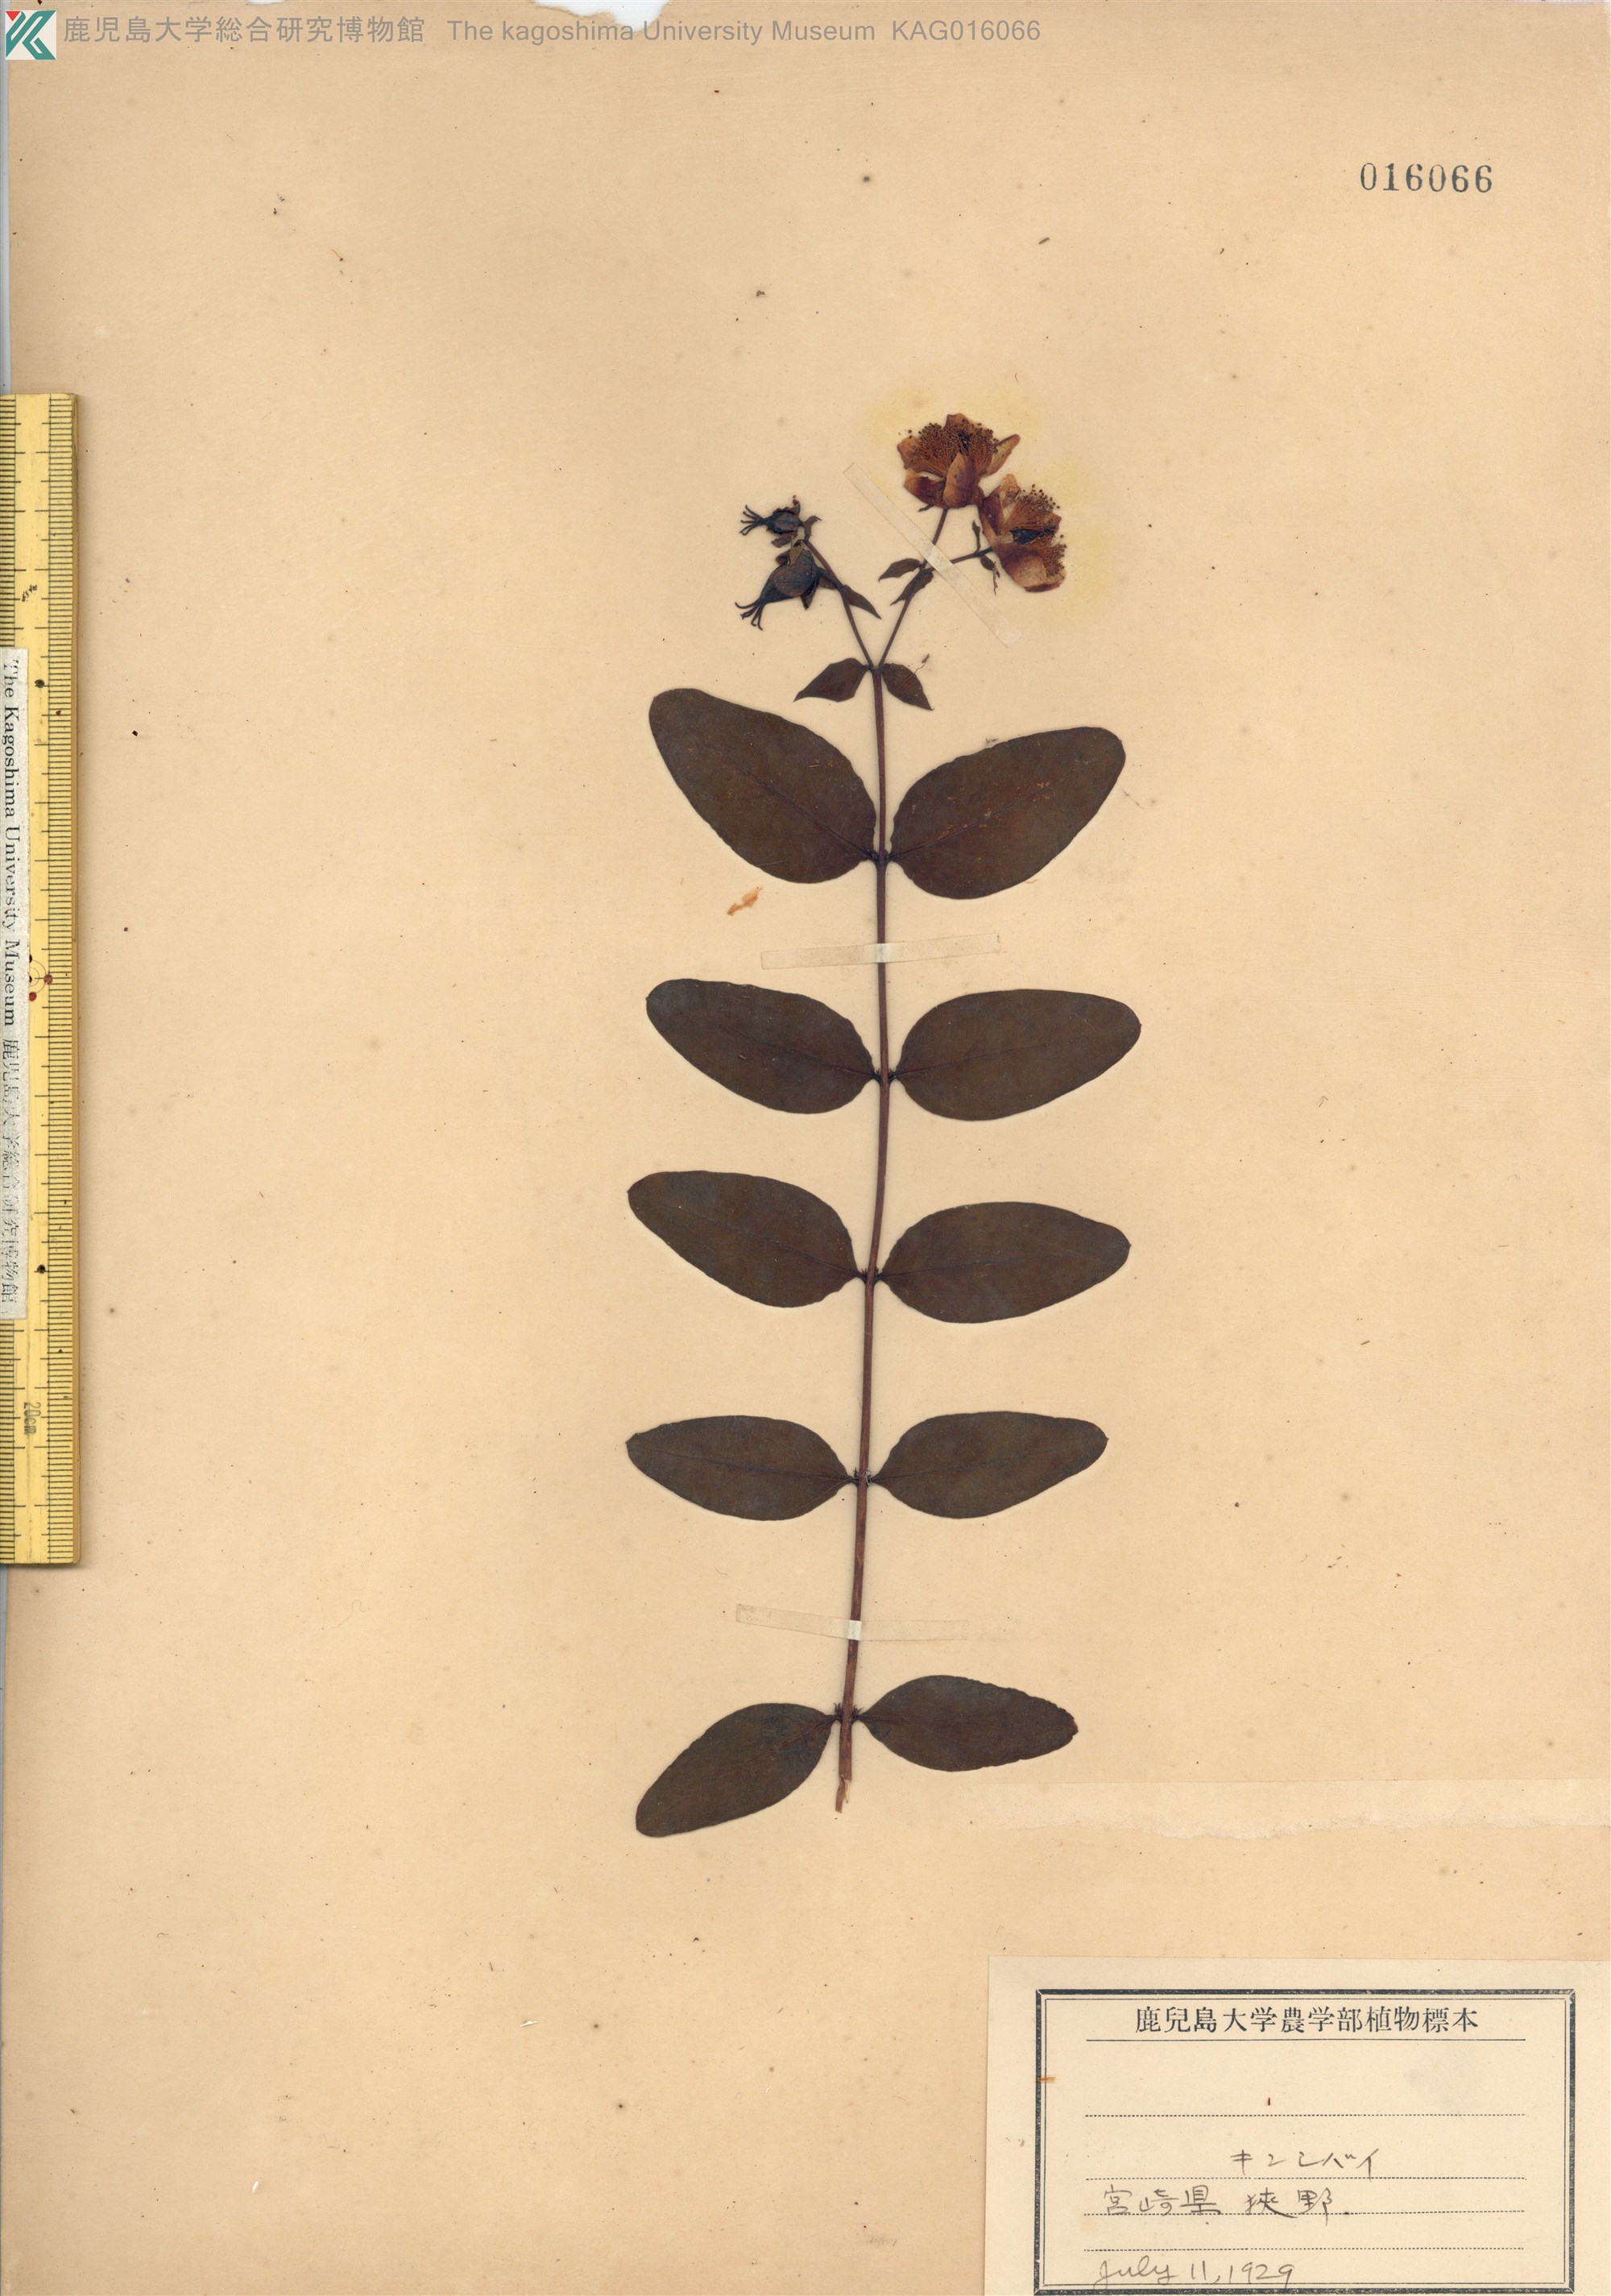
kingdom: Plantae
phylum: Tracheophyta
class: Magnoliopsida
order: Malpighiales
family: Hypericaceae
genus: Hypericum
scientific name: Hypericum patulum
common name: キンシバイ
